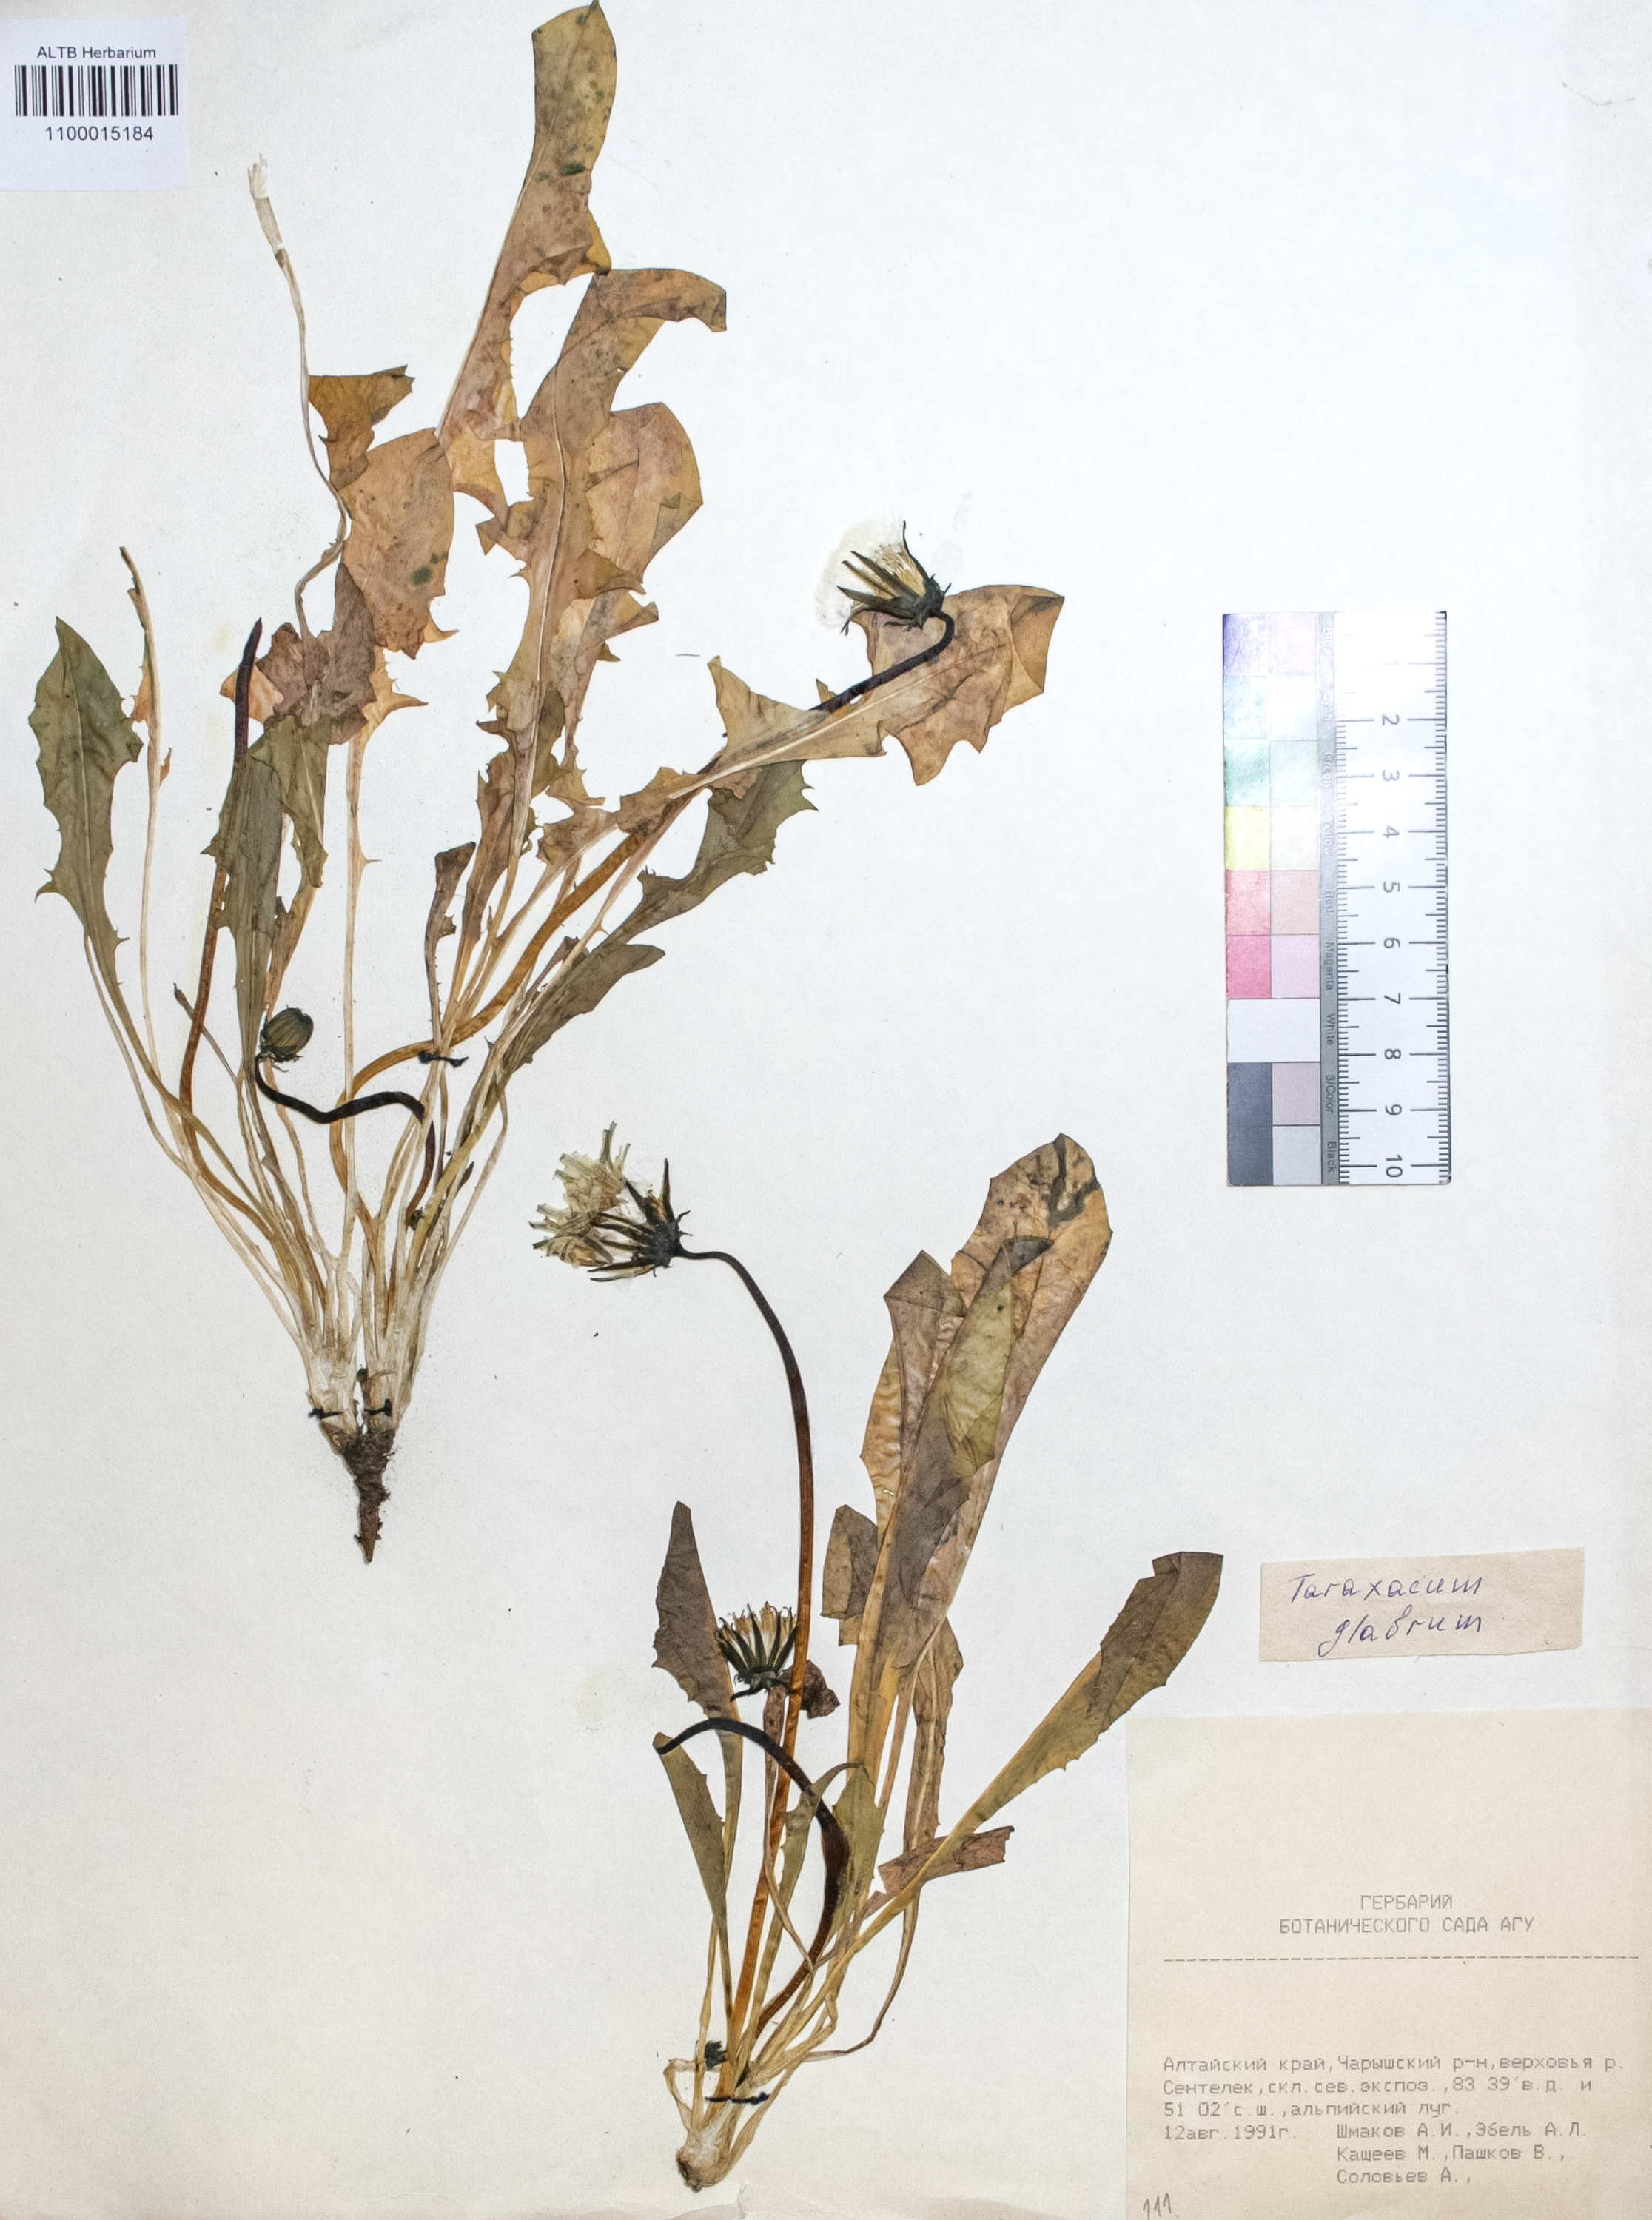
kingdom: Plantae
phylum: Tracheophyta
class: Magnoliopsida
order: Asterales
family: Asteraceae
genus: Taraxacum
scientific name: Taraxacum glabrum
